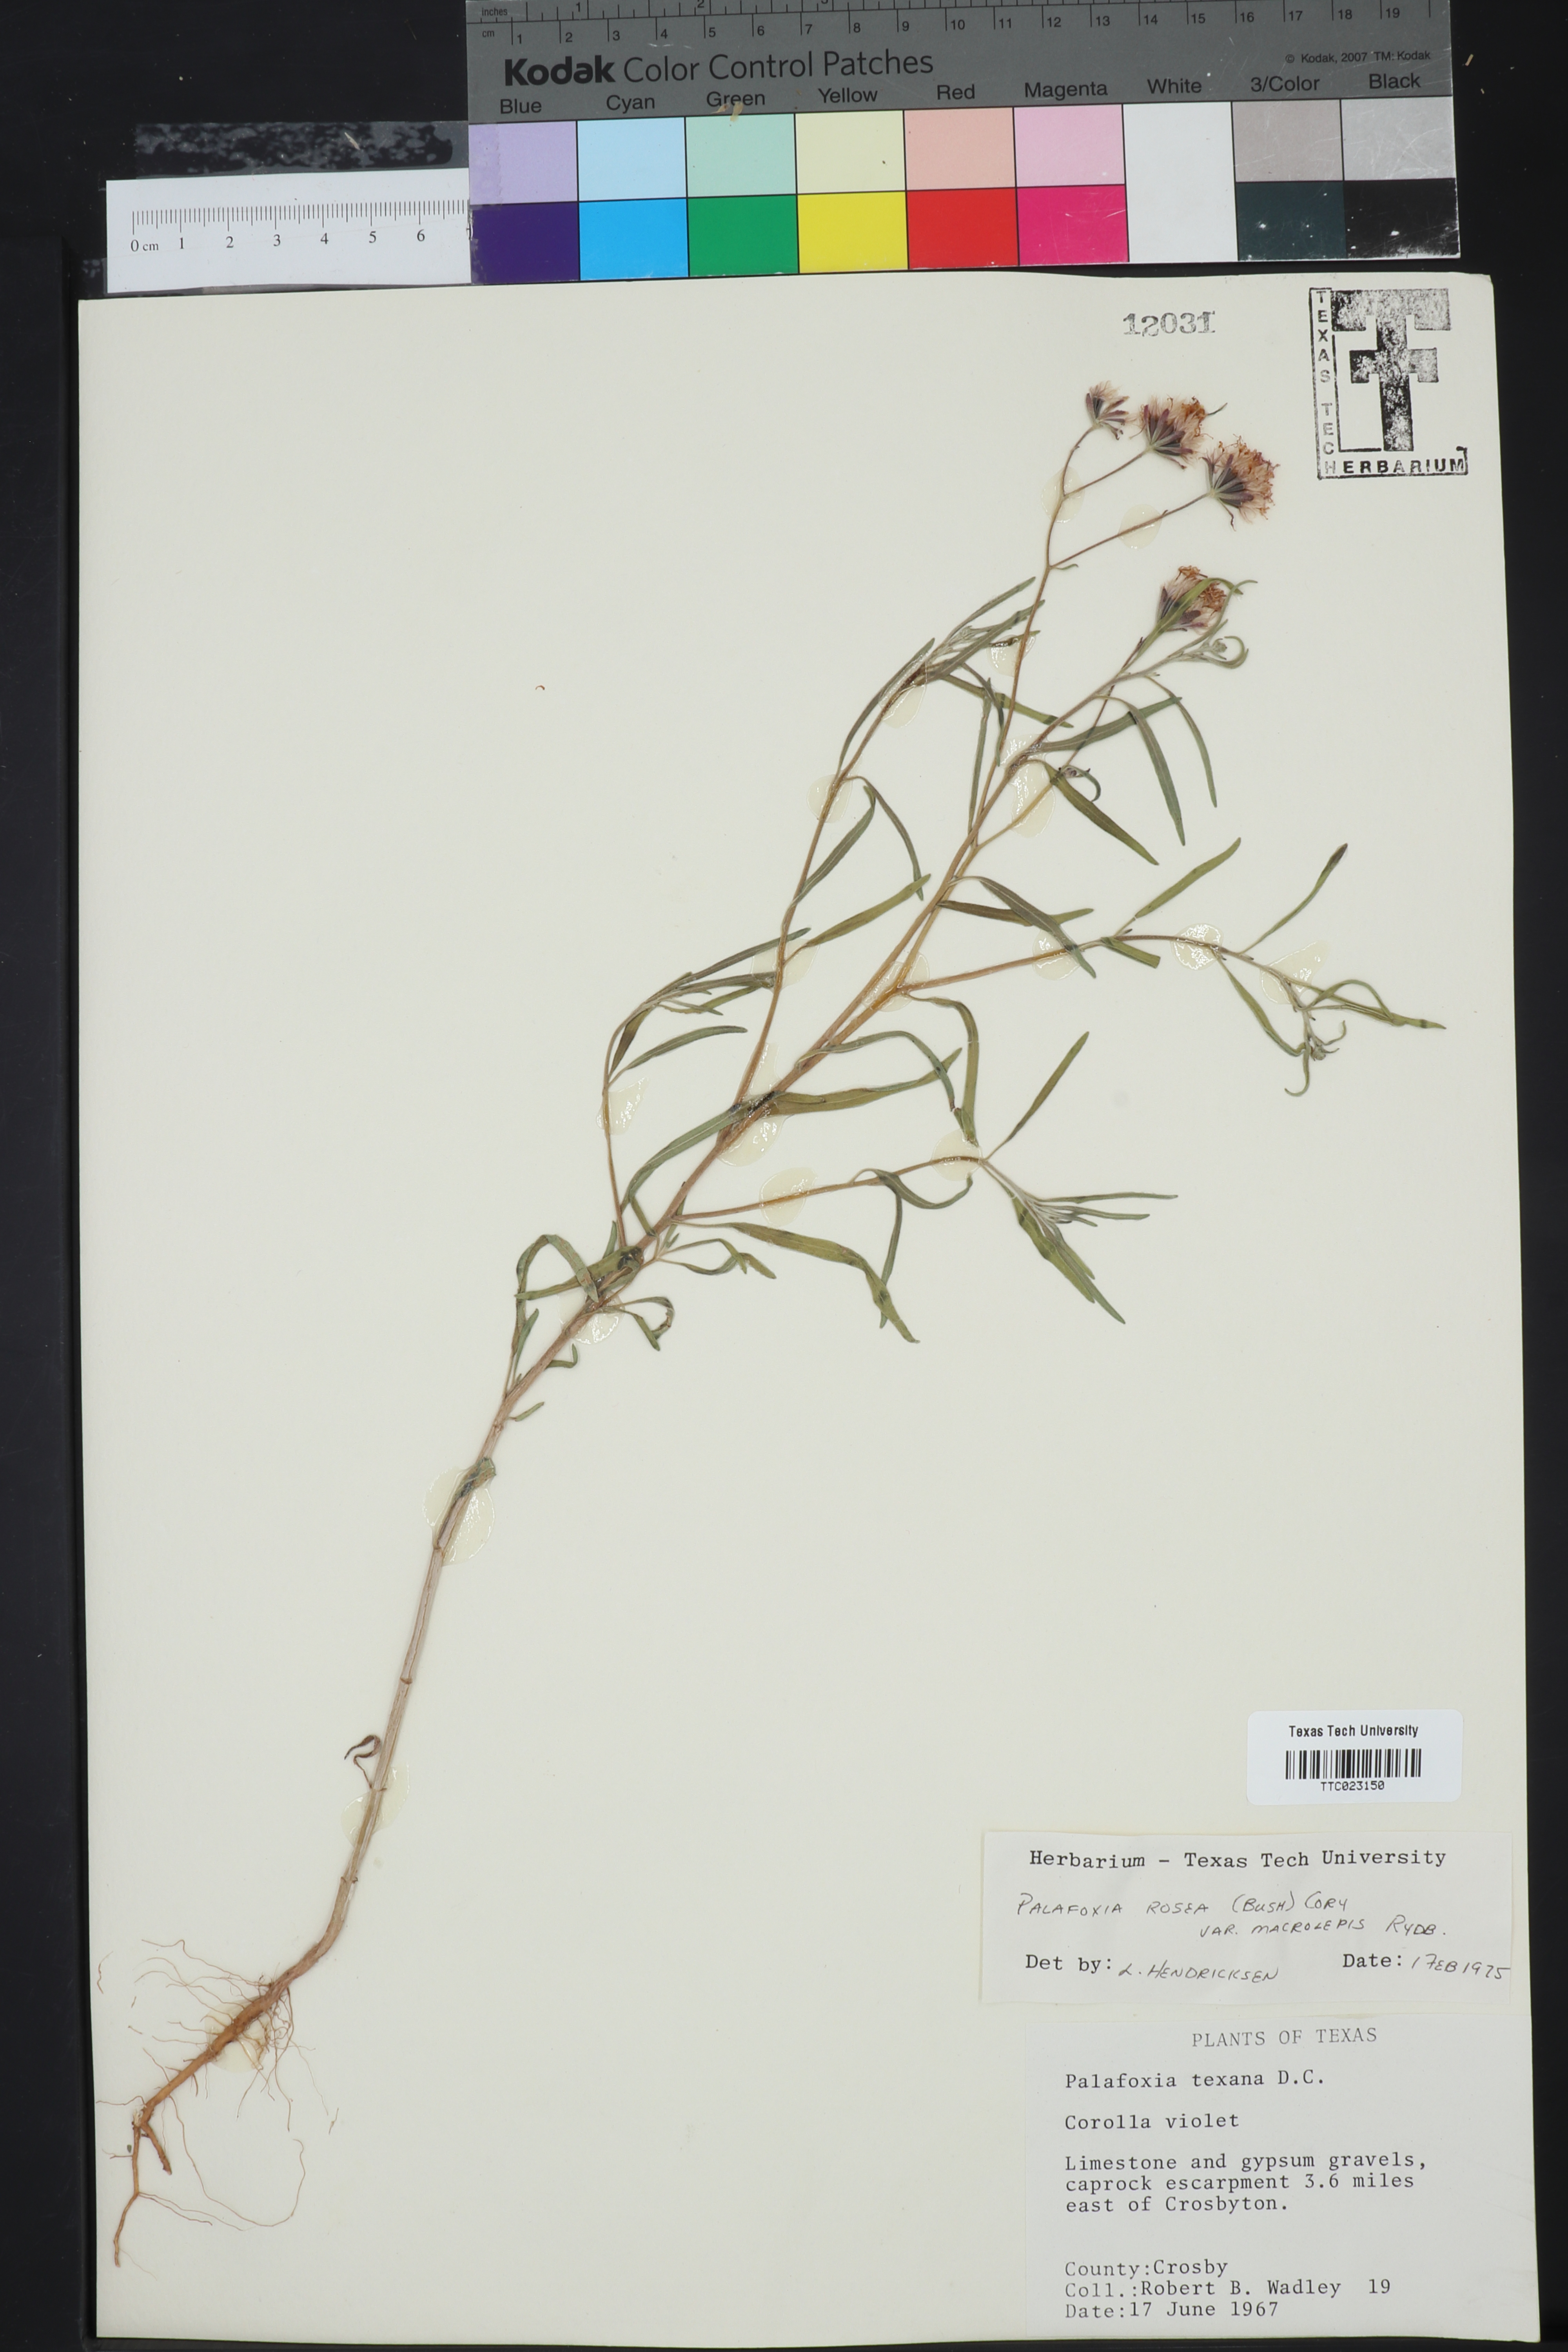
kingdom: Plantae
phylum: Tracheophyta
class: Magnoliopsida
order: Asterales
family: Asteraceae
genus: Palafoxia
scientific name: Palafoxia rosea
